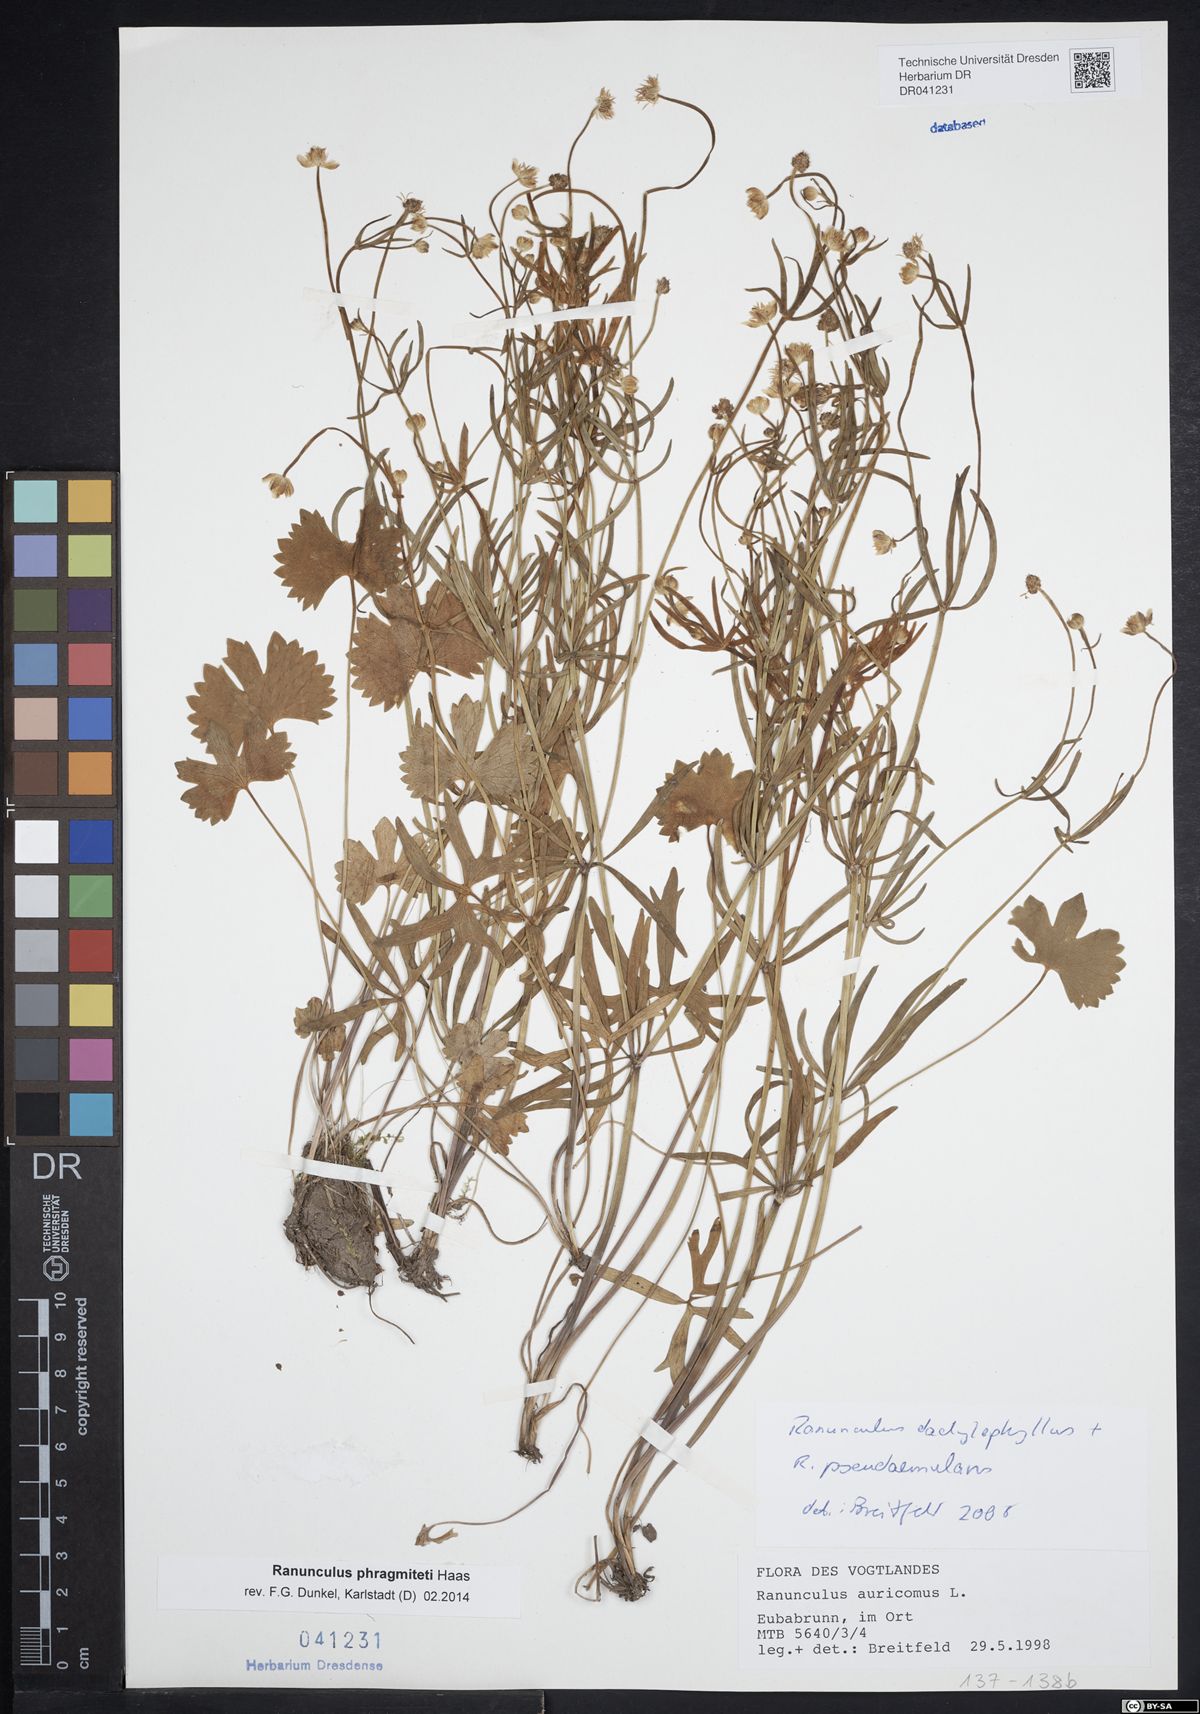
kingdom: Plantae
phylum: Tracheophyta
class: Magnoliopsida
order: Ranunculales
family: Ranunculaceae
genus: Ranunculus
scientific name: Ranunculus phragmiteti
